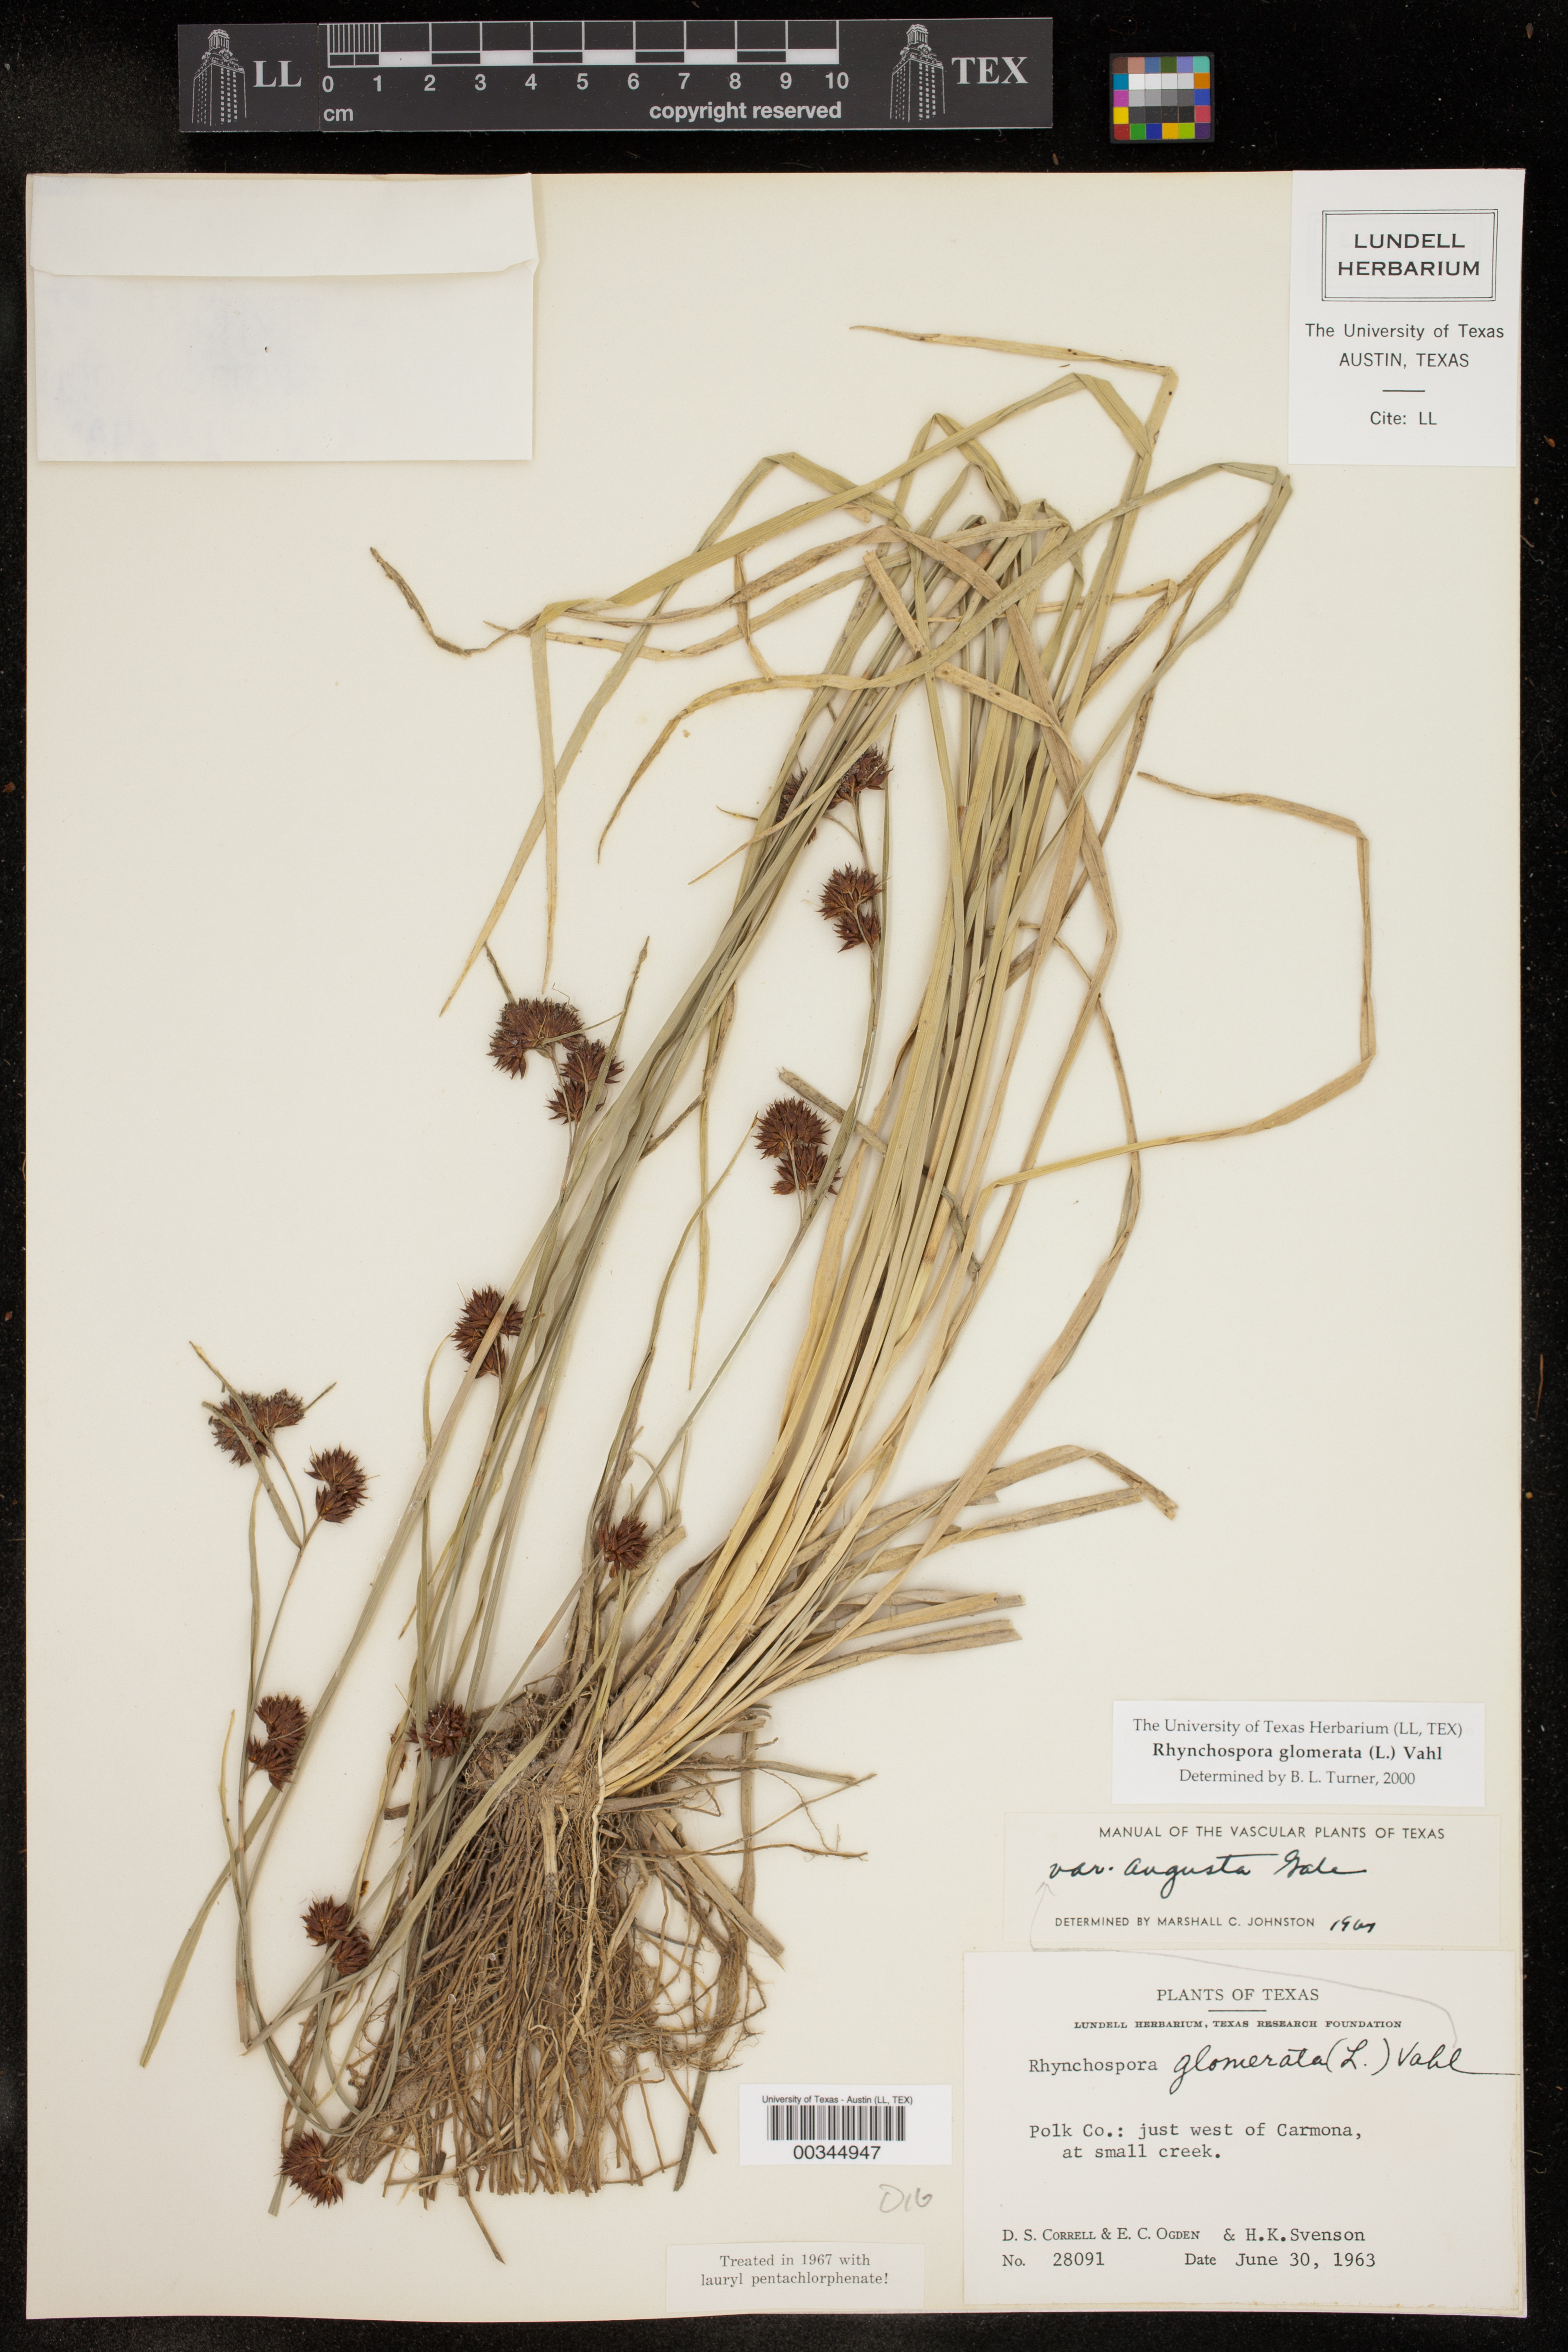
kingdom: Plantae
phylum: Tracheophyta
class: Liliopsida
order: Poales
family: Cyperaceae
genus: Rhynchospora
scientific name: Rhynchospora angusta
